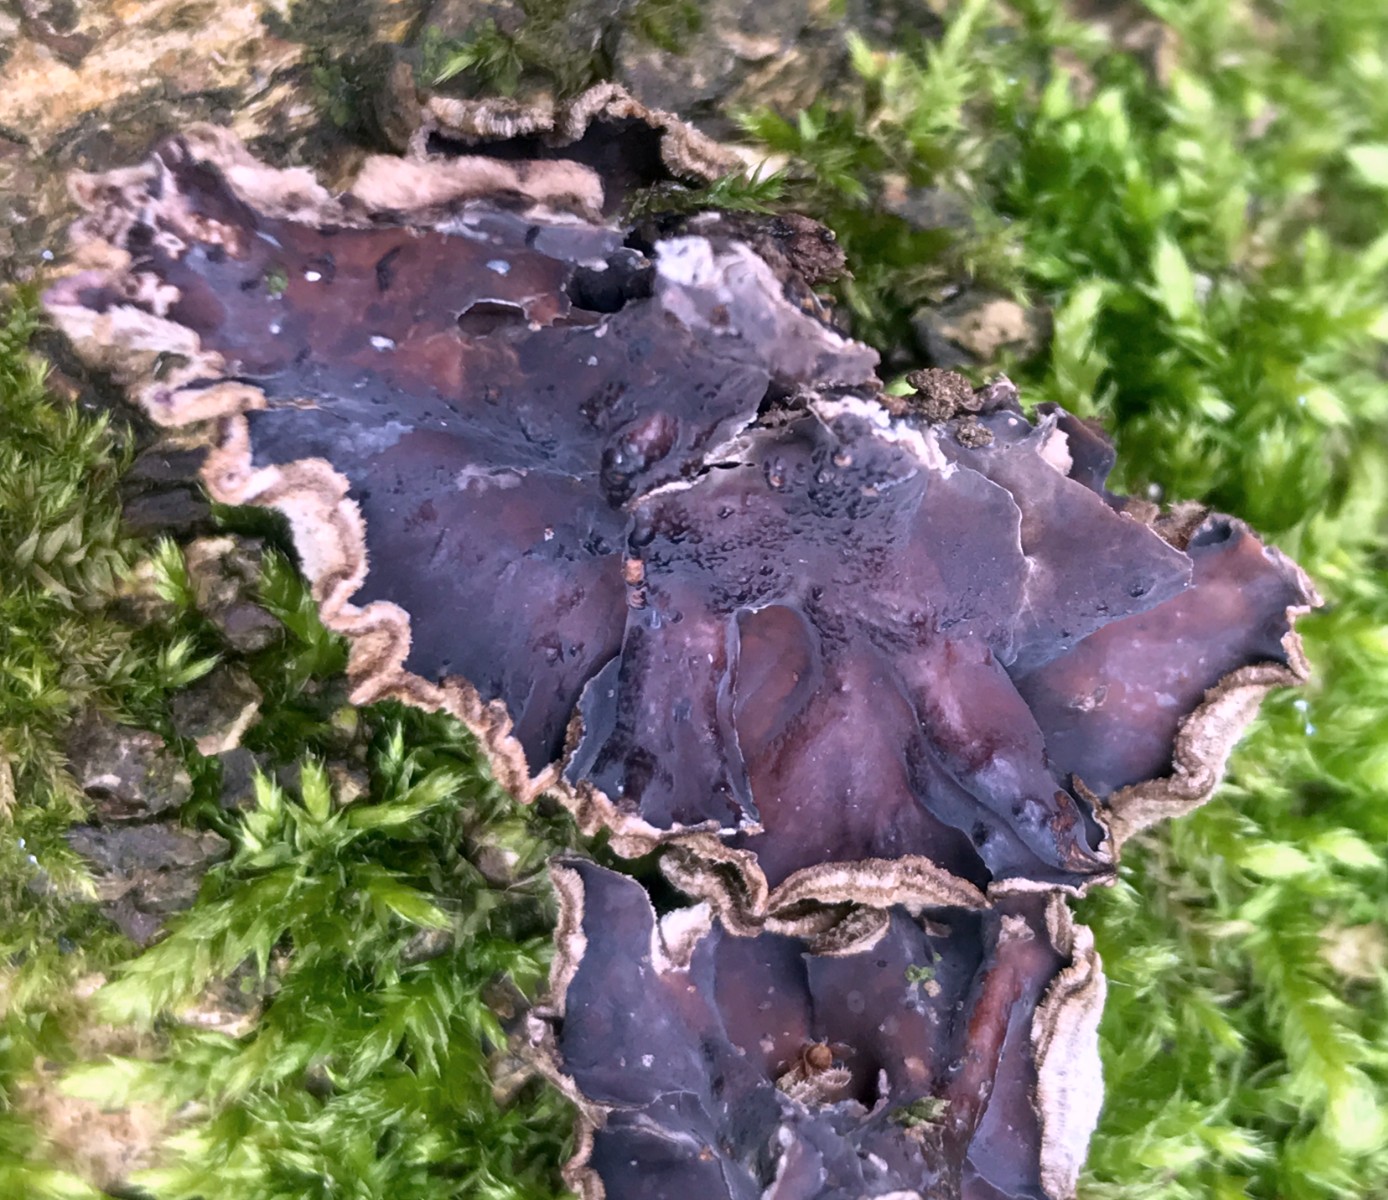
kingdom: Fungi
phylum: Basidiomycota
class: Agaricomycetes
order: Agaricales
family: Cyphellaceae
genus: Chondrostereum
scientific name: Chondrostereum purpureum
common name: purpurlædersvamp
